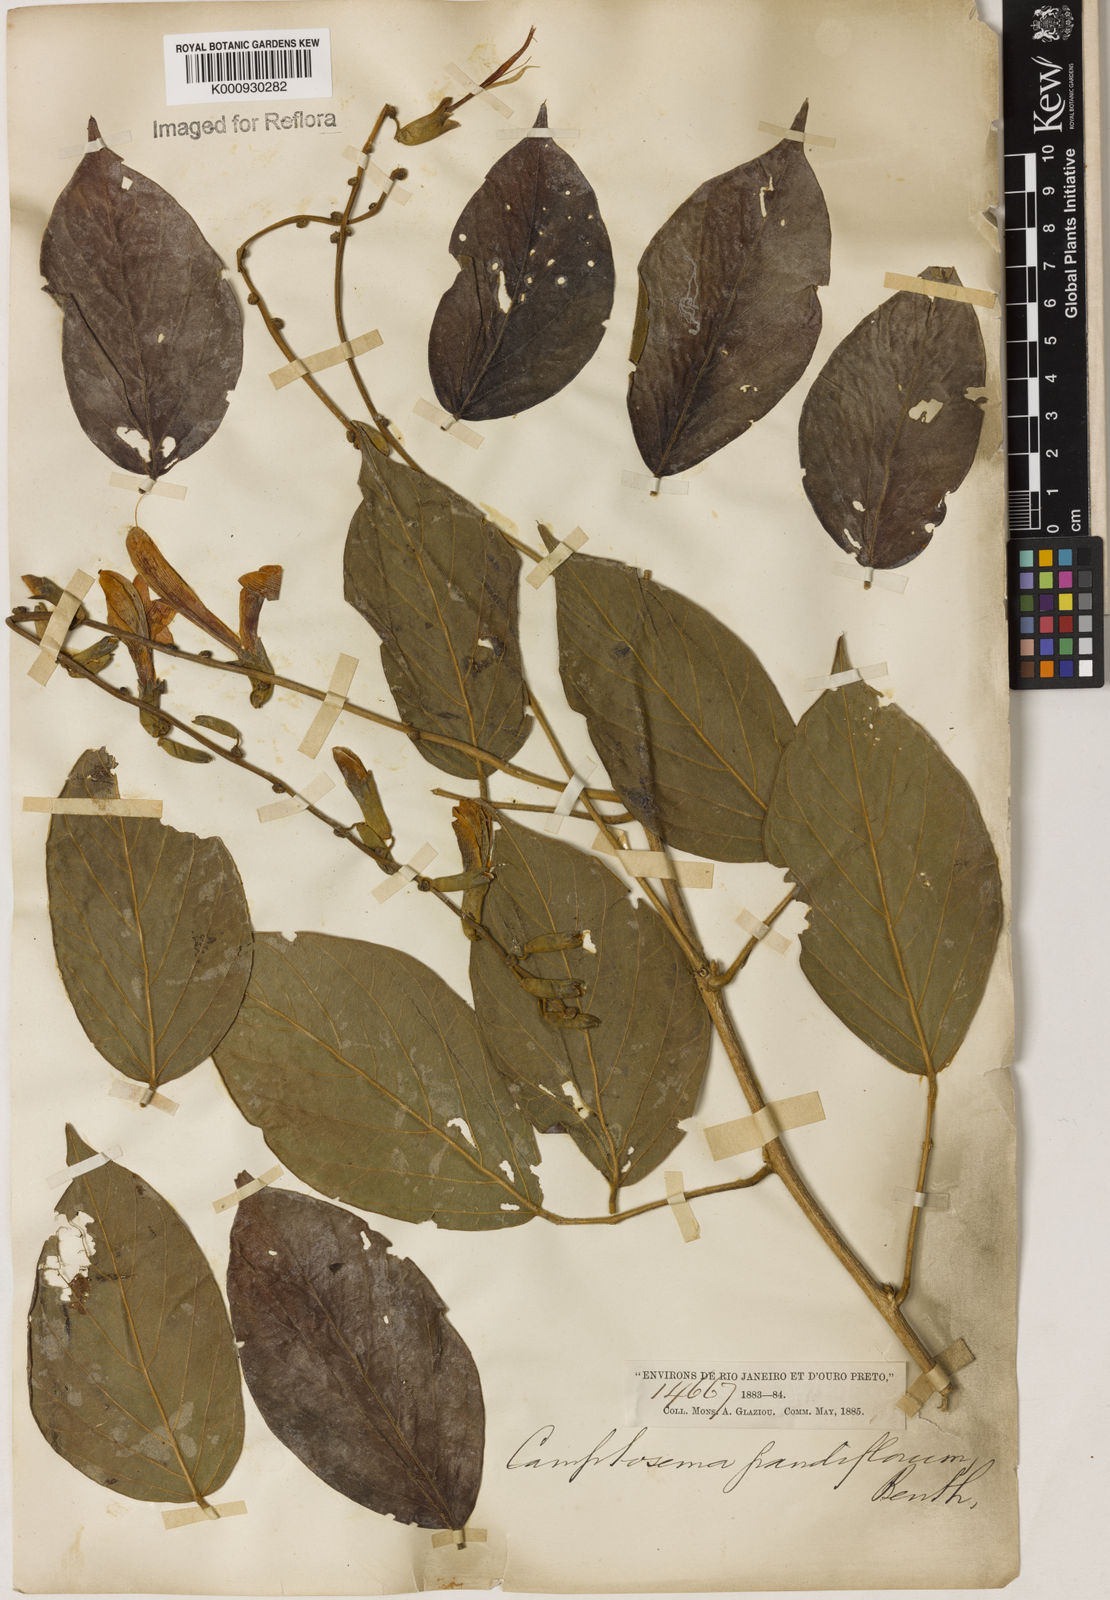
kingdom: Plantae
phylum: Tracheophyta
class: Magnoliopsida
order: Fabales
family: Fabaceae
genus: Camptosema
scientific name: Camptosema spectabile
